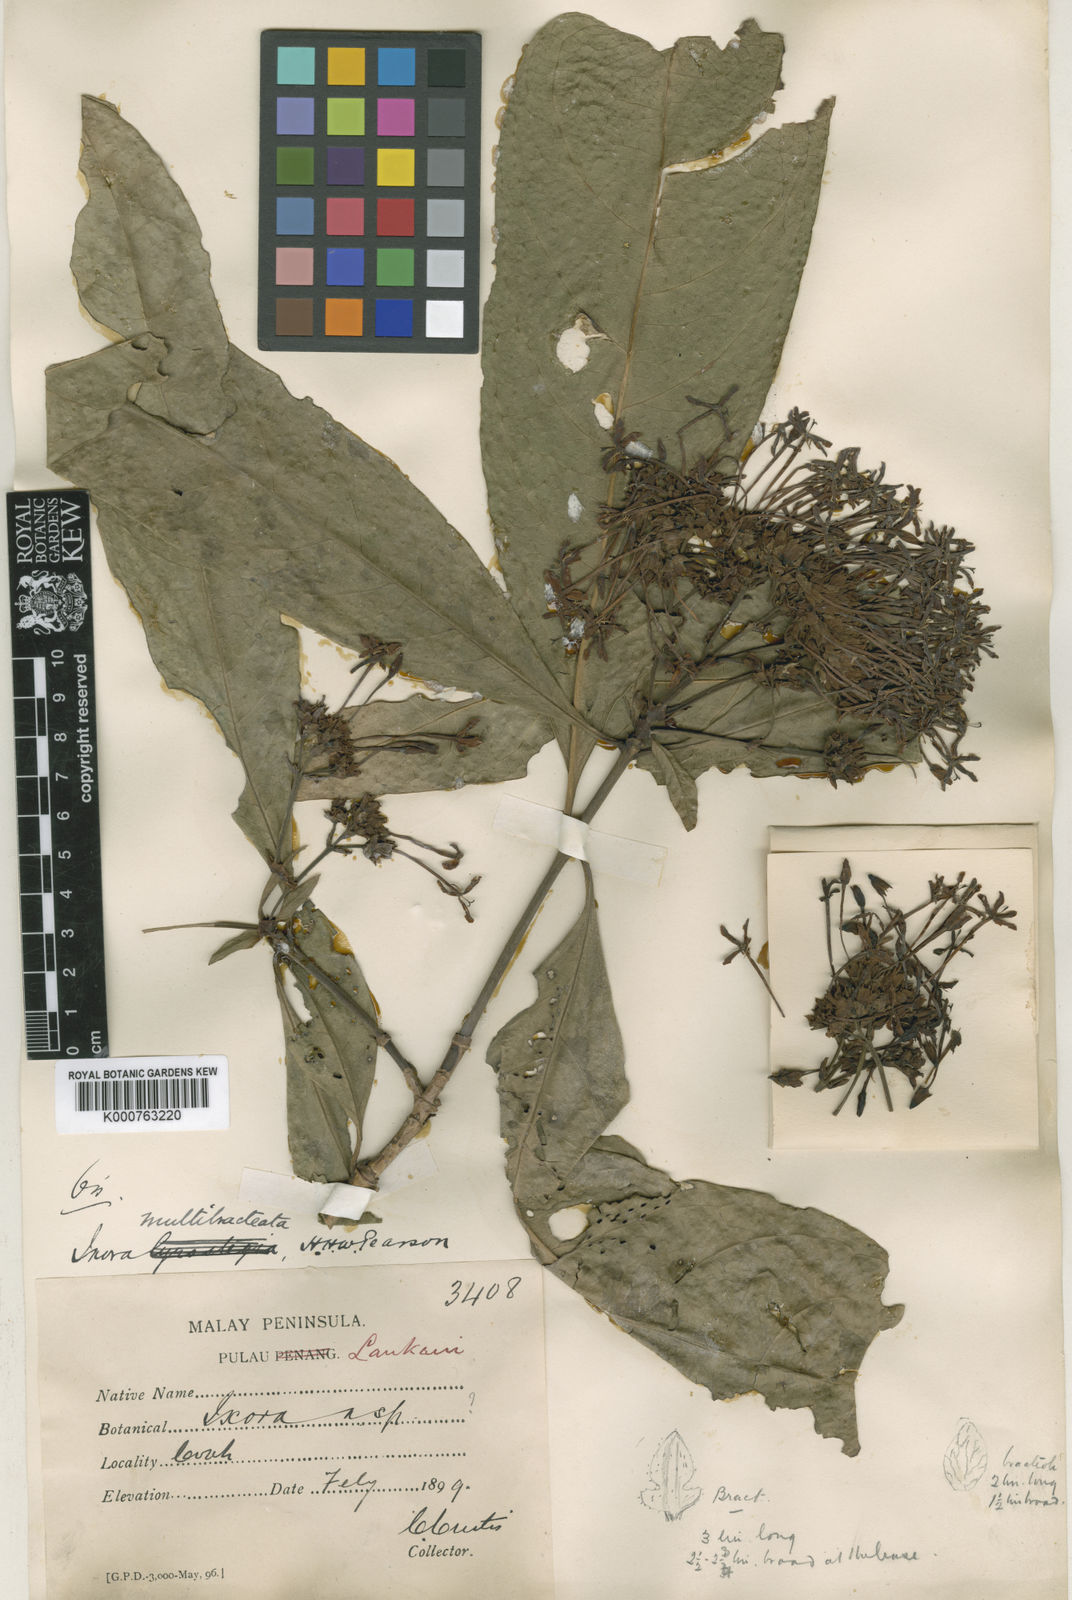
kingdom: Plantae
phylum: Tracheophyta
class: Magnoliopsida
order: Gentianales
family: Rubiaceae
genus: Ixora
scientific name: Ixora umbellata
